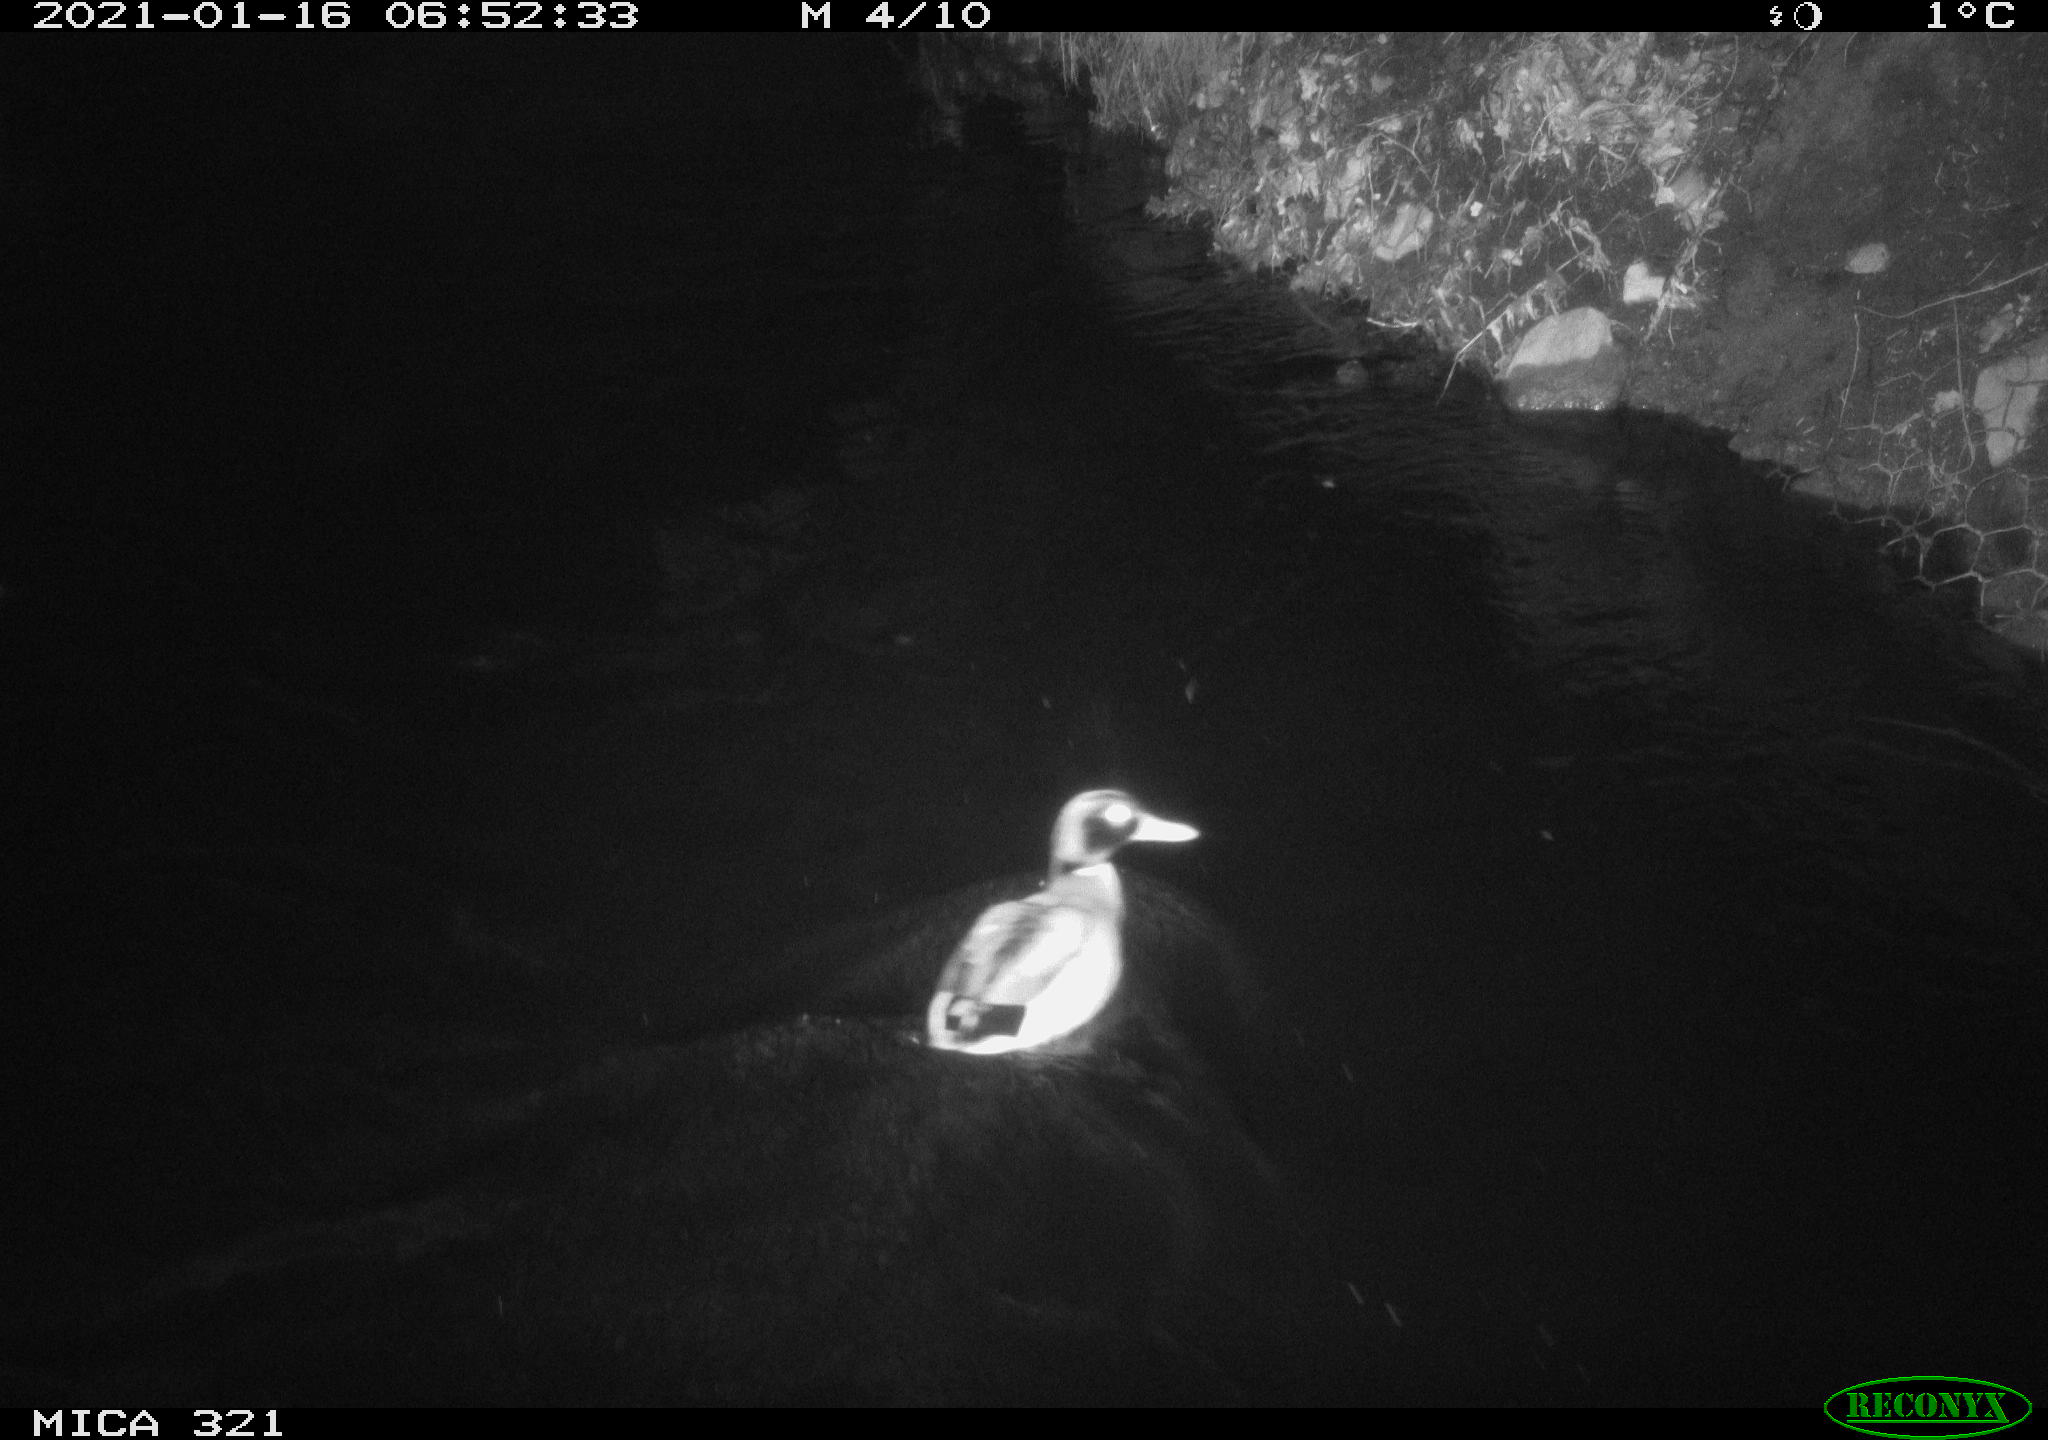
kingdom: Animalia
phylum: Chordata
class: Aves
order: Anseriformes
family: Anatidae
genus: Anas
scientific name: Anas platyrhynchos
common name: Mallard
